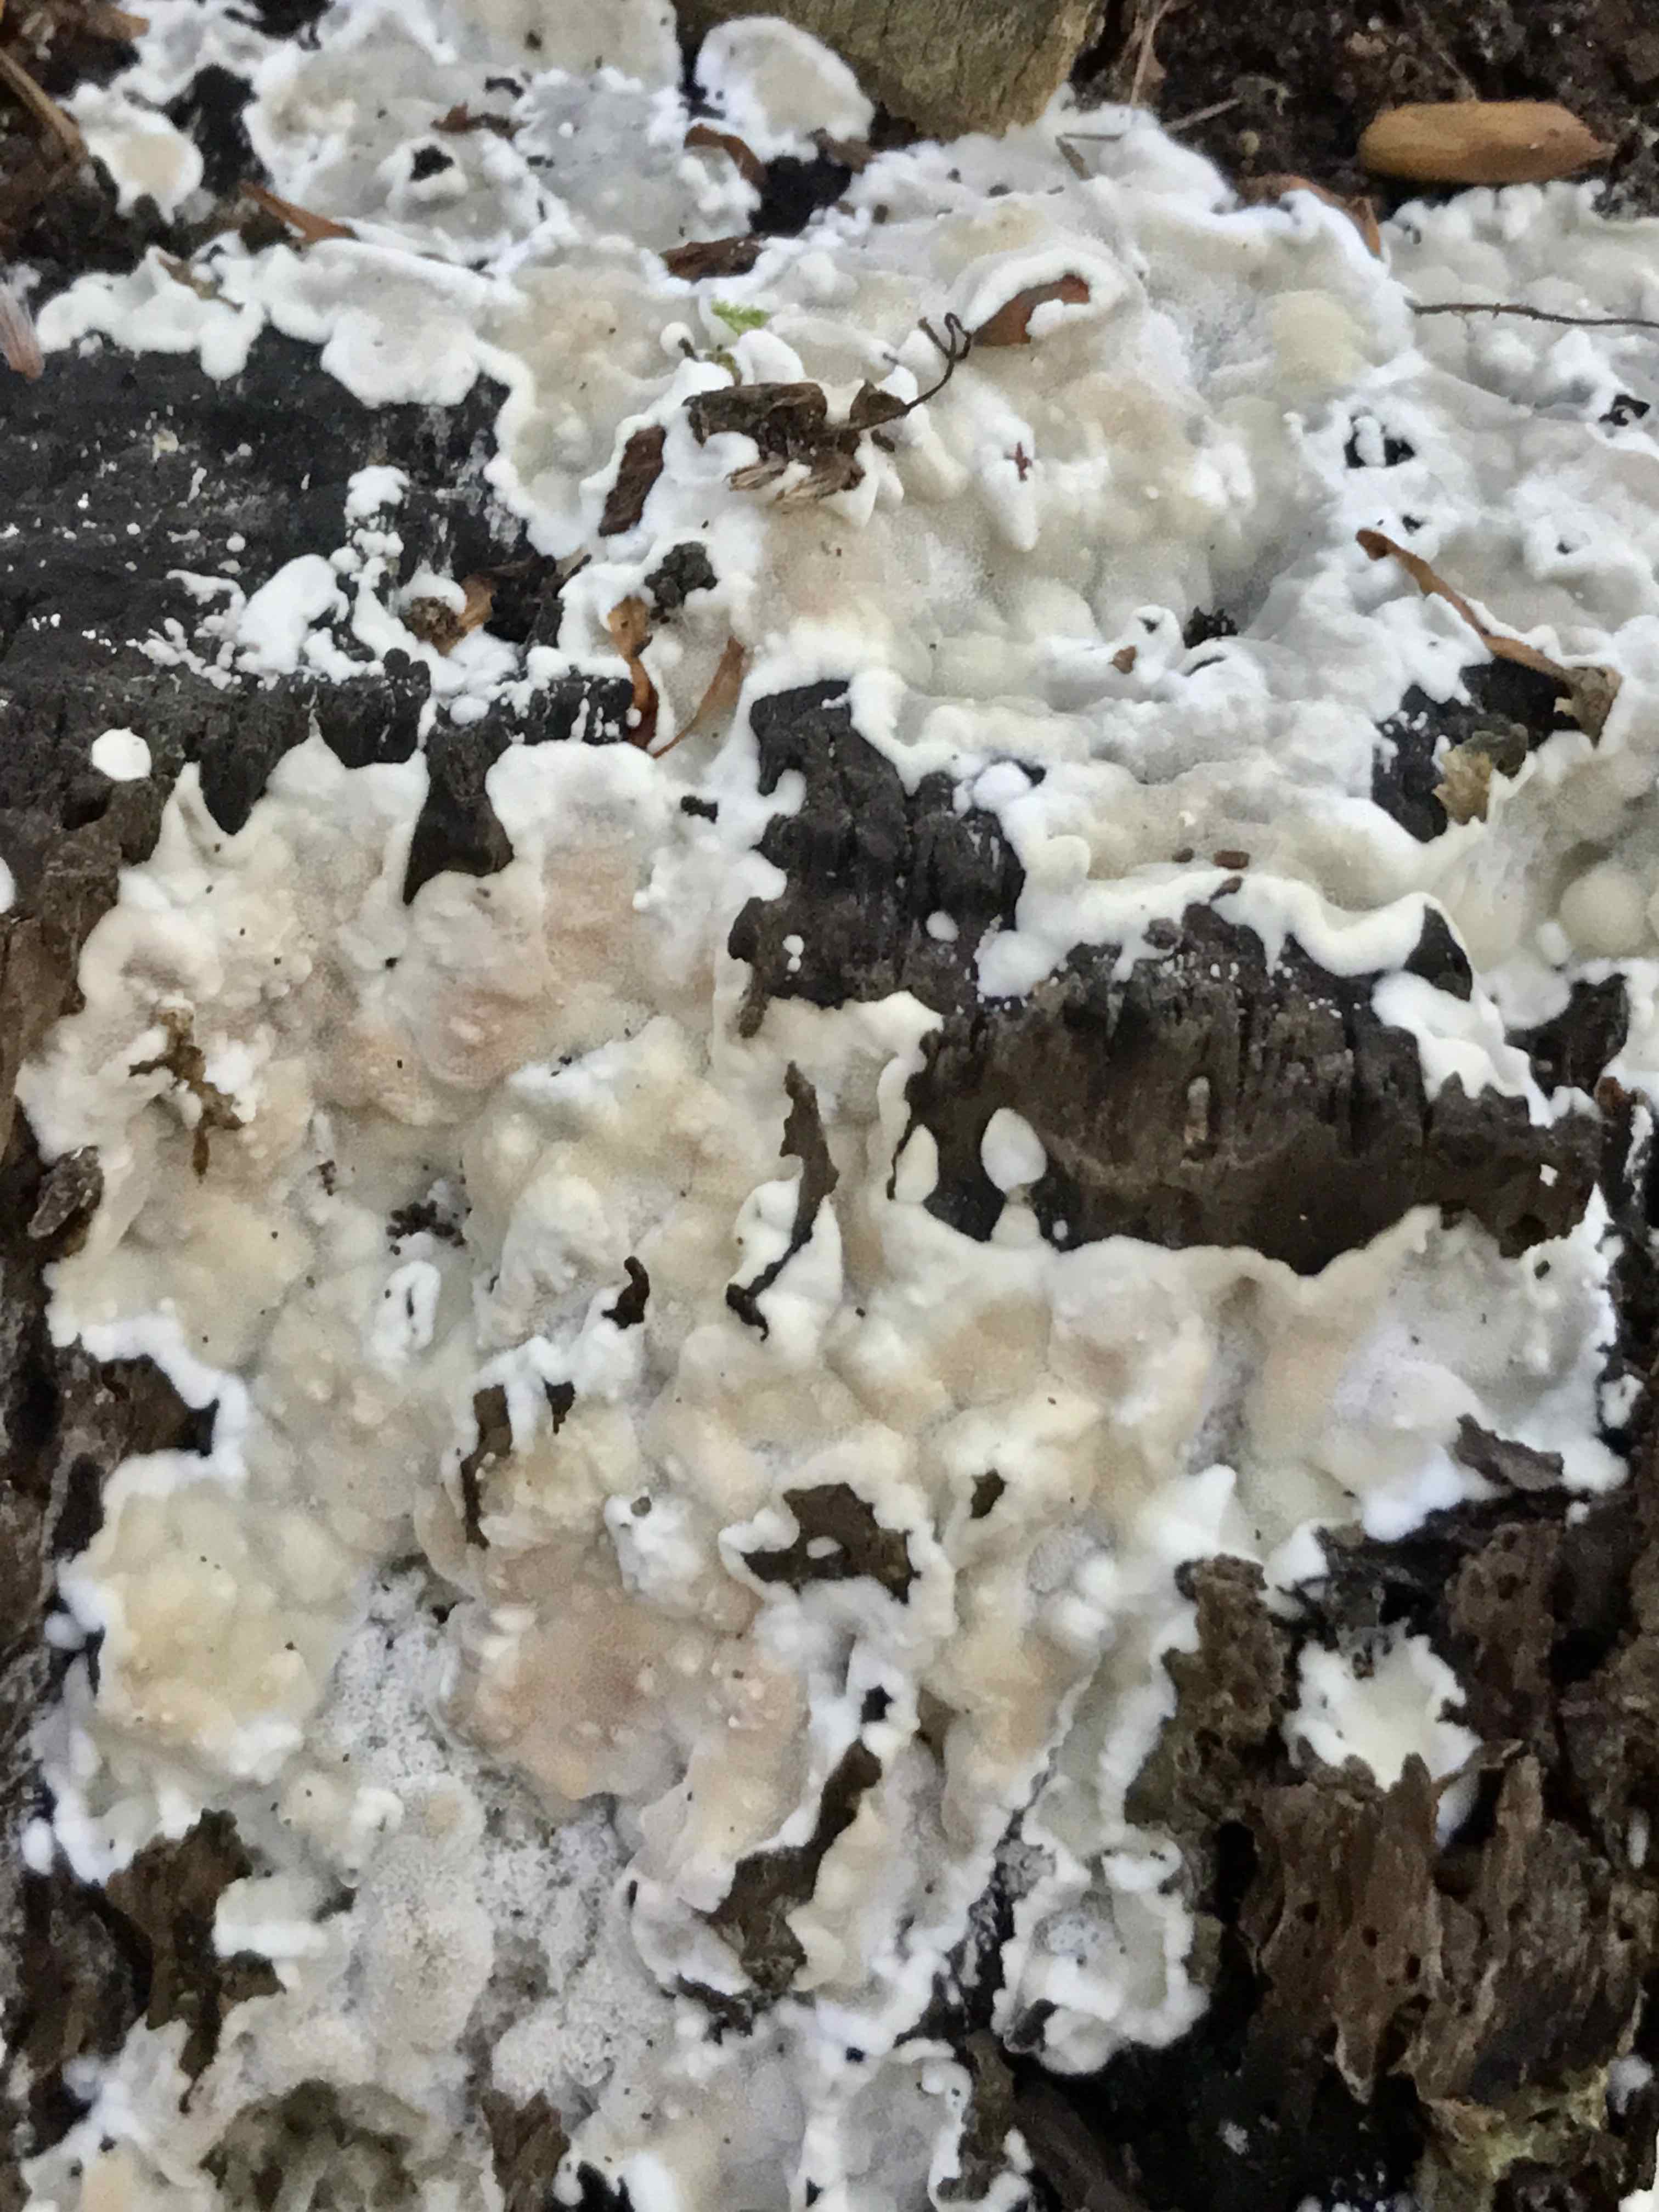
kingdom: Fungi
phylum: Basidiomycota
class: Agaricomycetes
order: Polyporales
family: Meruliaceae
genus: Physisporinus
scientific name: Physisporinus vitreus
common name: mastesvamp
